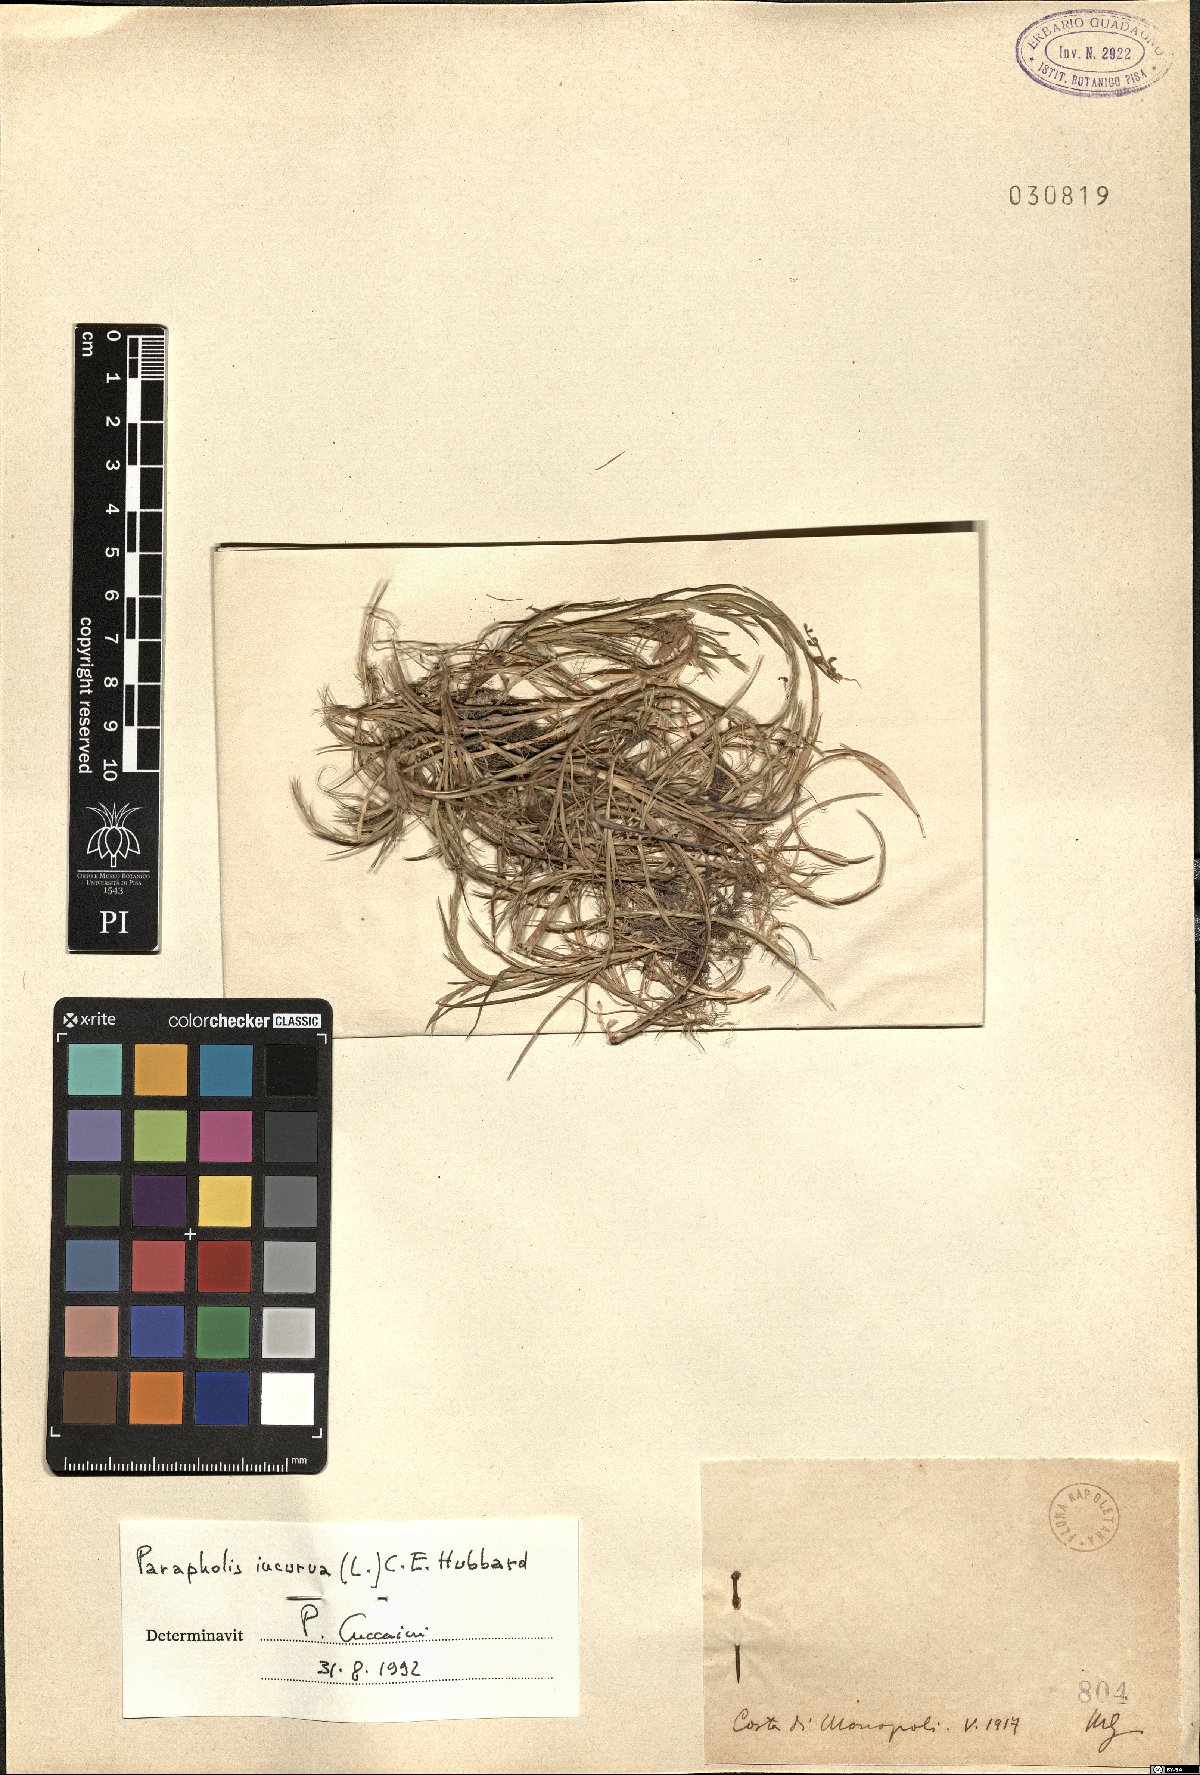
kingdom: Plantae
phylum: Tracheophyta
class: Liliopsida
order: Poales
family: Poaceae
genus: Parapholis
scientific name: Parapholis incurva
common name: Curved sicklegrass
